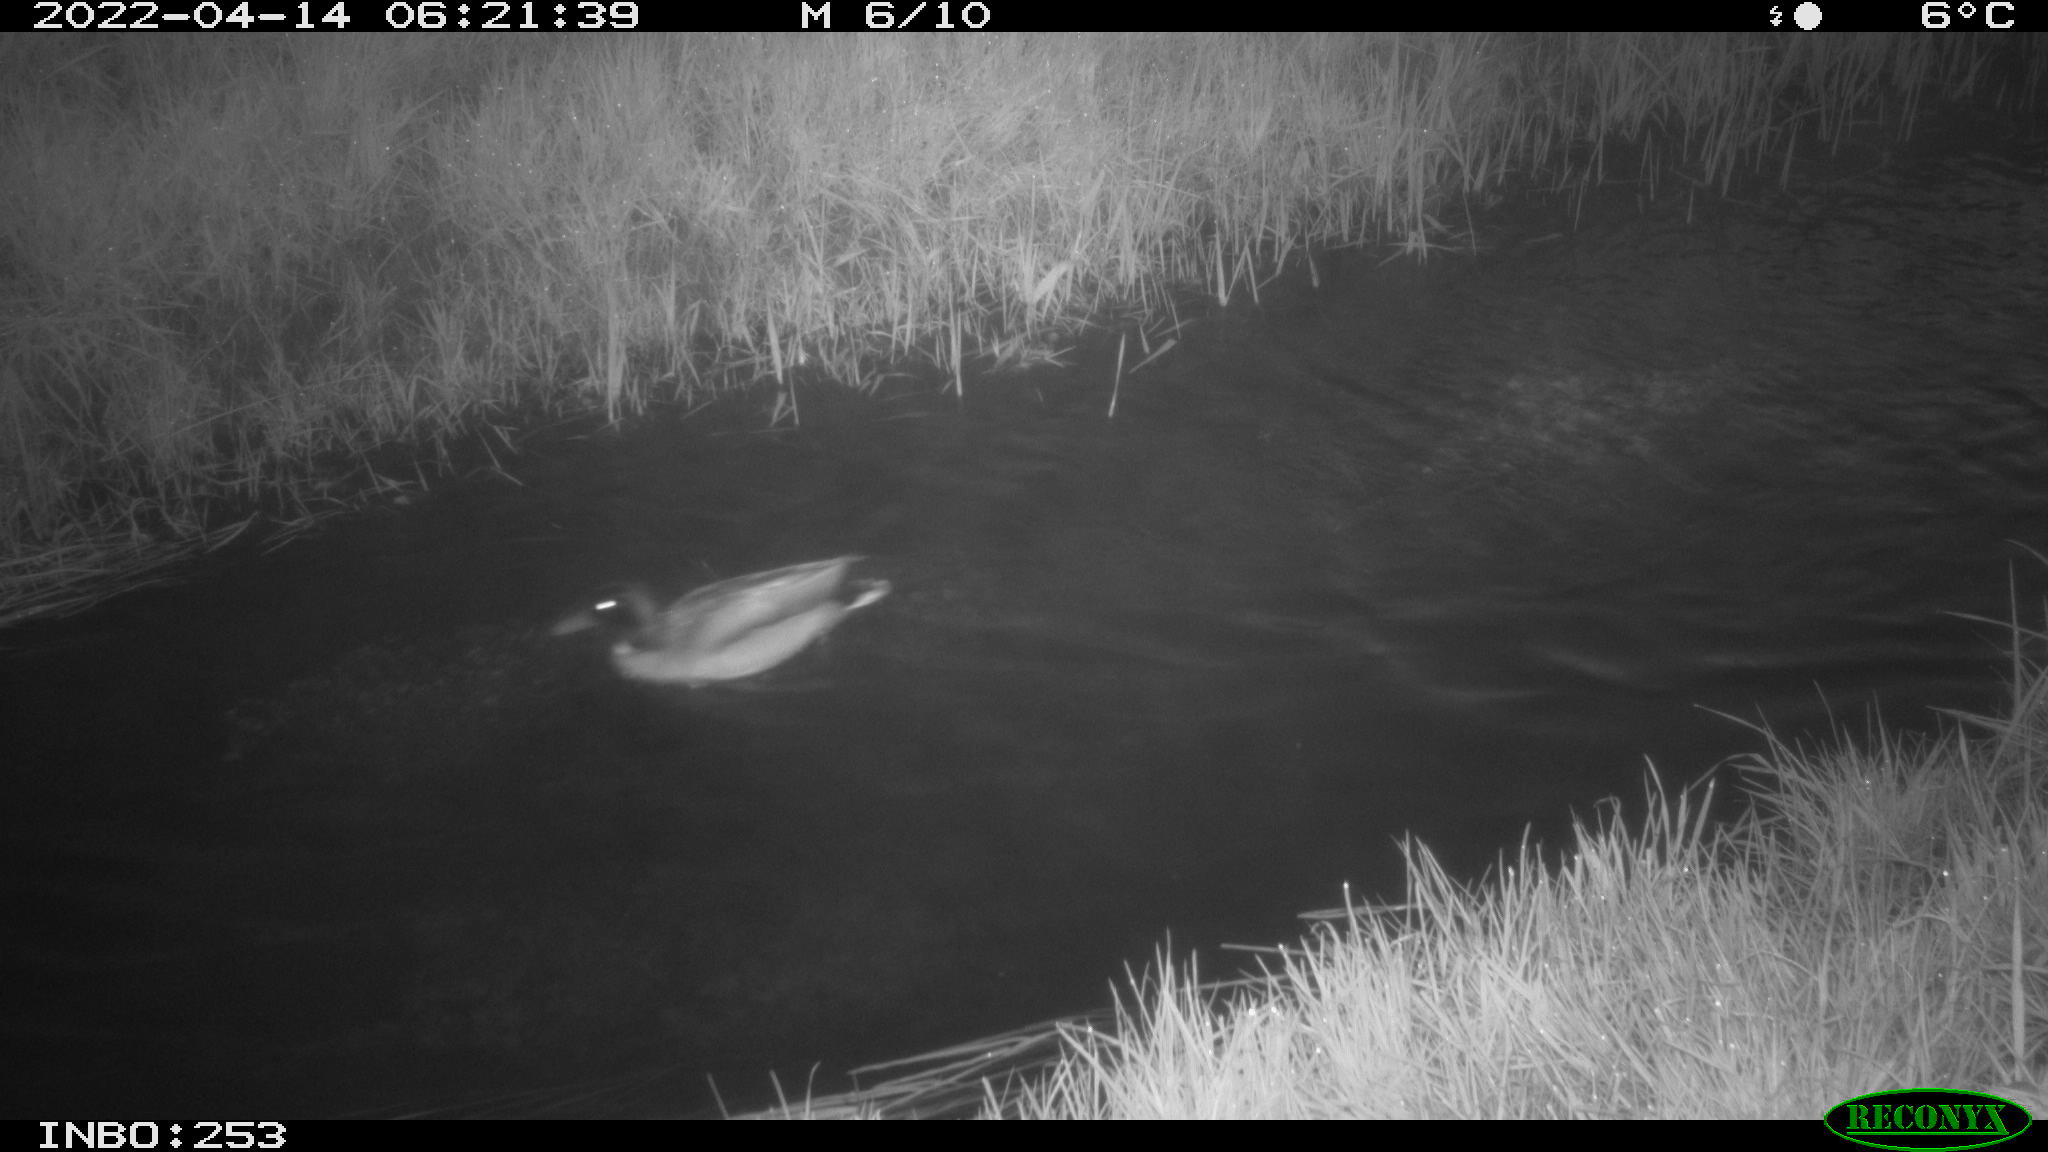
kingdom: Animalia
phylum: Chordata
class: Aves
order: Anseriformes
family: Anatidae
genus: Anas
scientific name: Anas platyrhynchos
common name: Mallard
